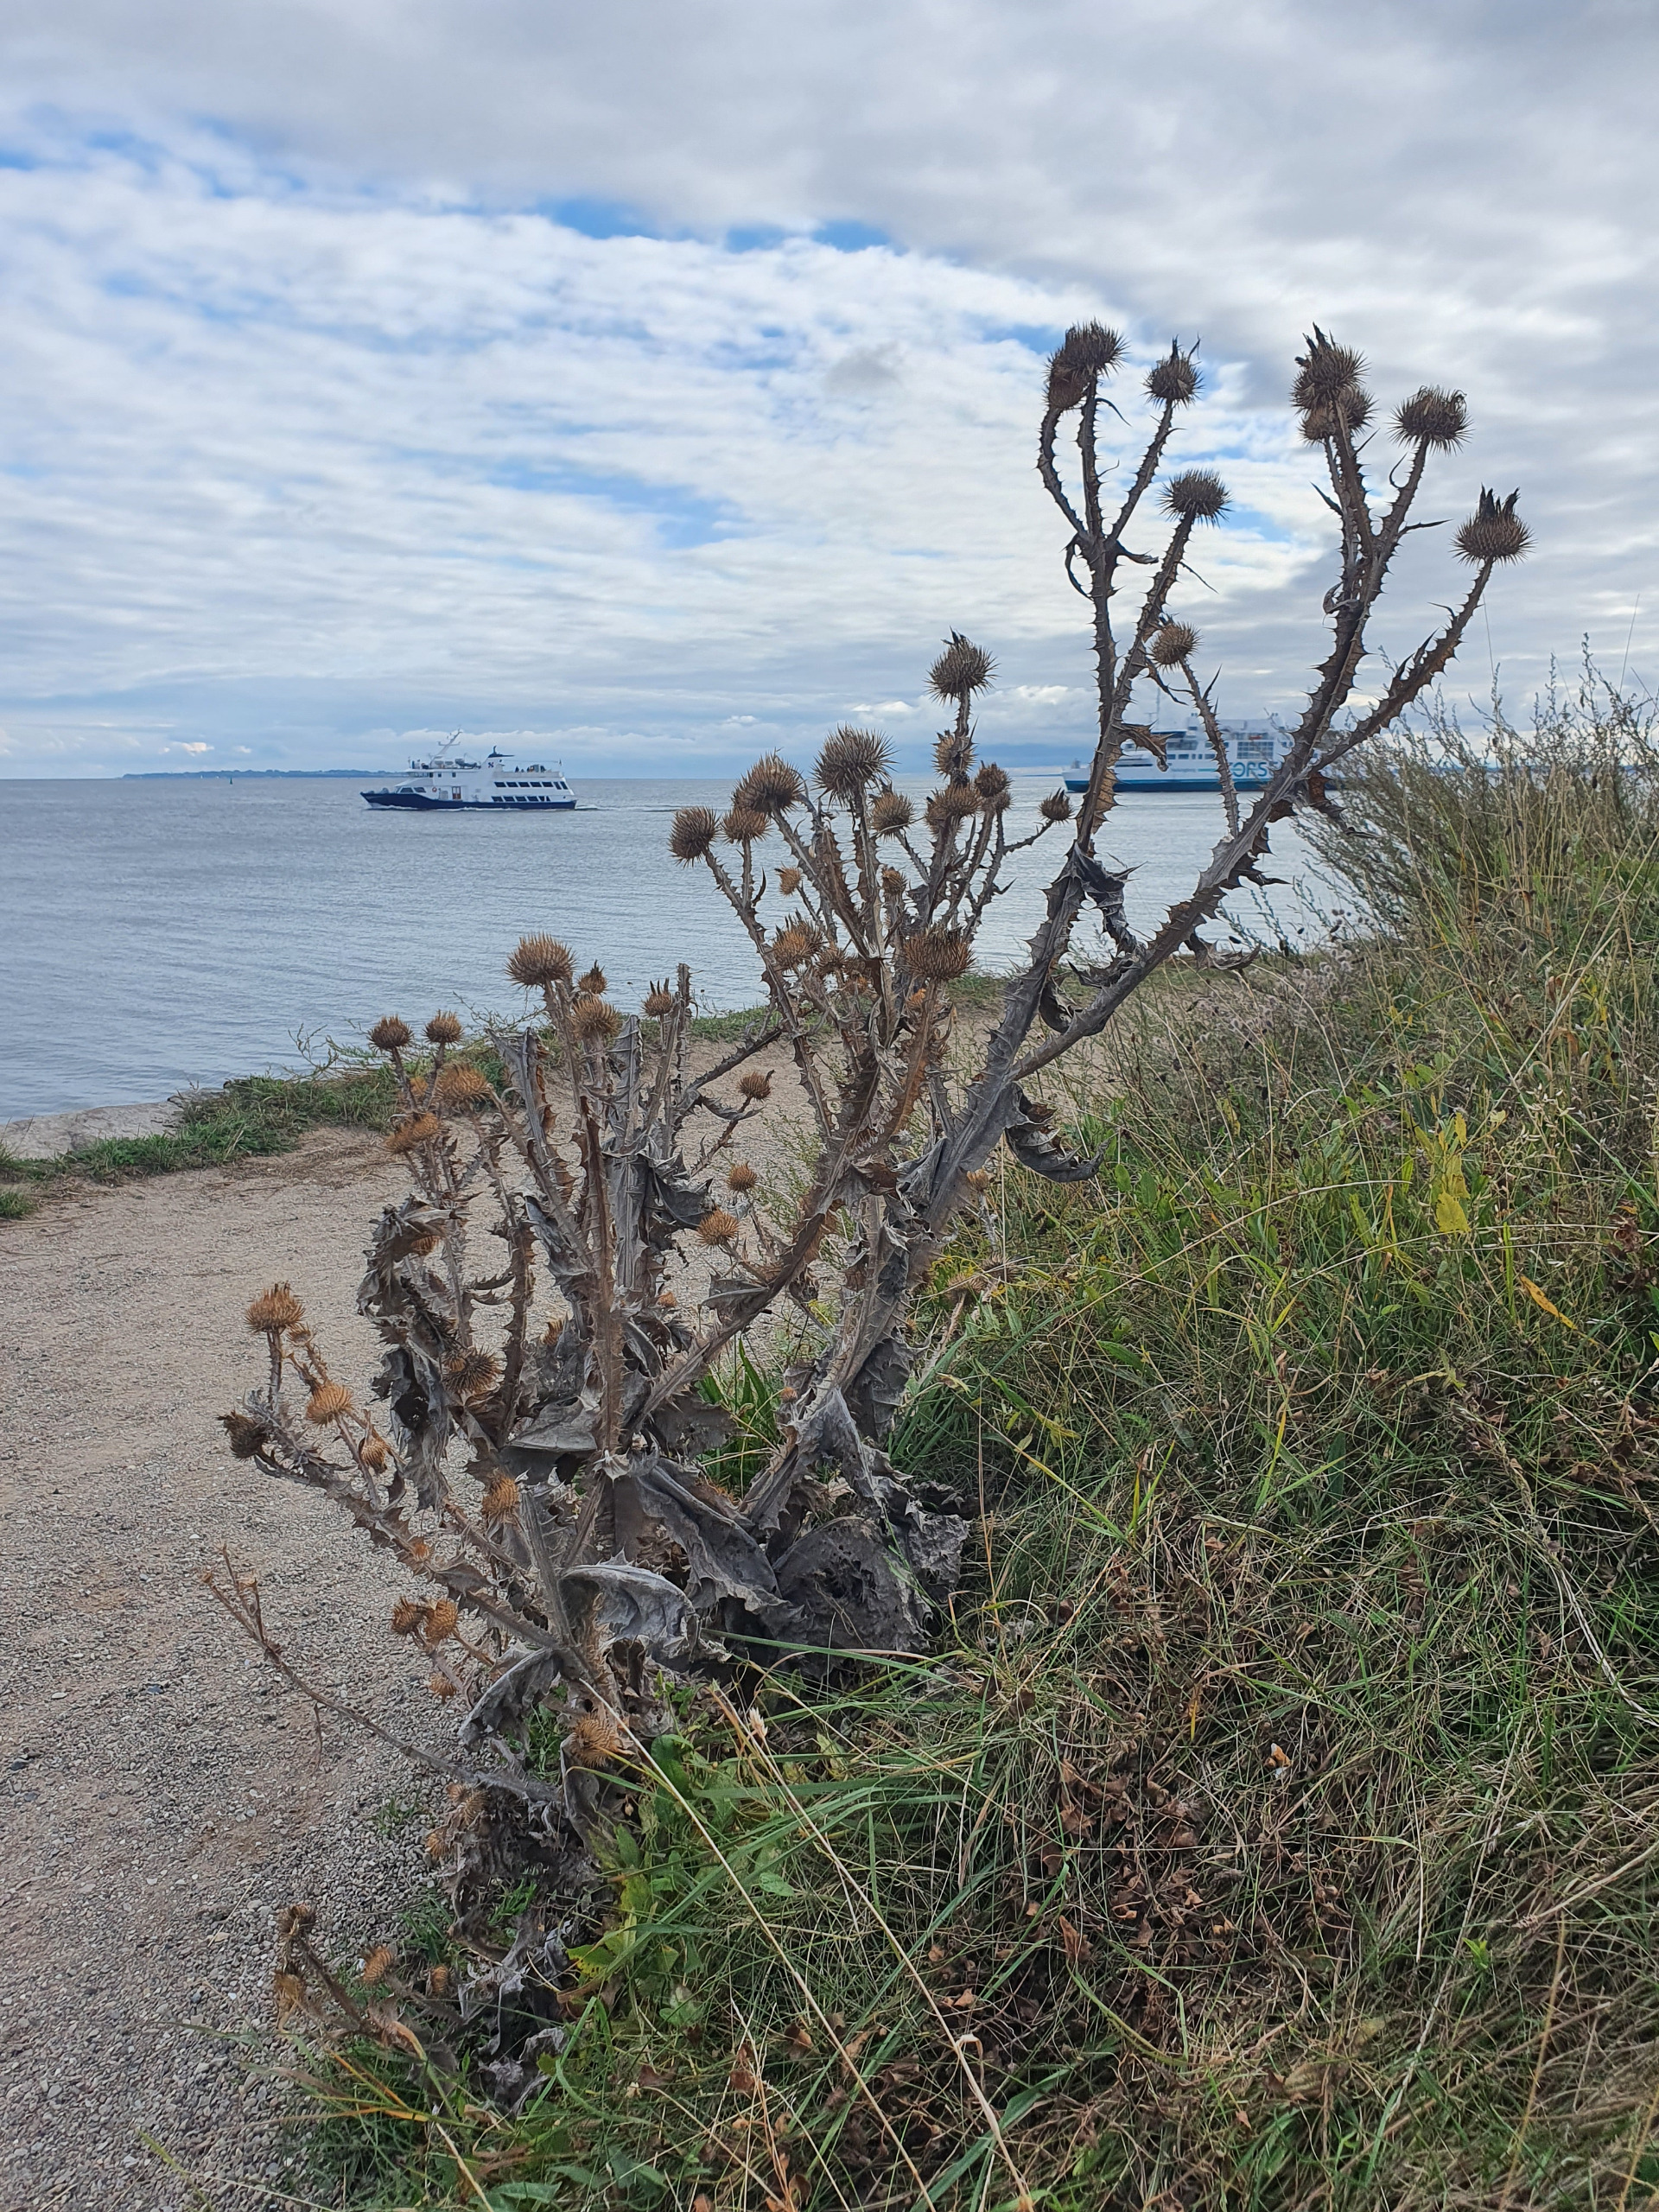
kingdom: Plantae
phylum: Tracheophyta
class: Magnoliopsida
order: Asterales
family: Asteraceae
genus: Onopordum
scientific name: Onopordum acanthium
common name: Æselfoder
